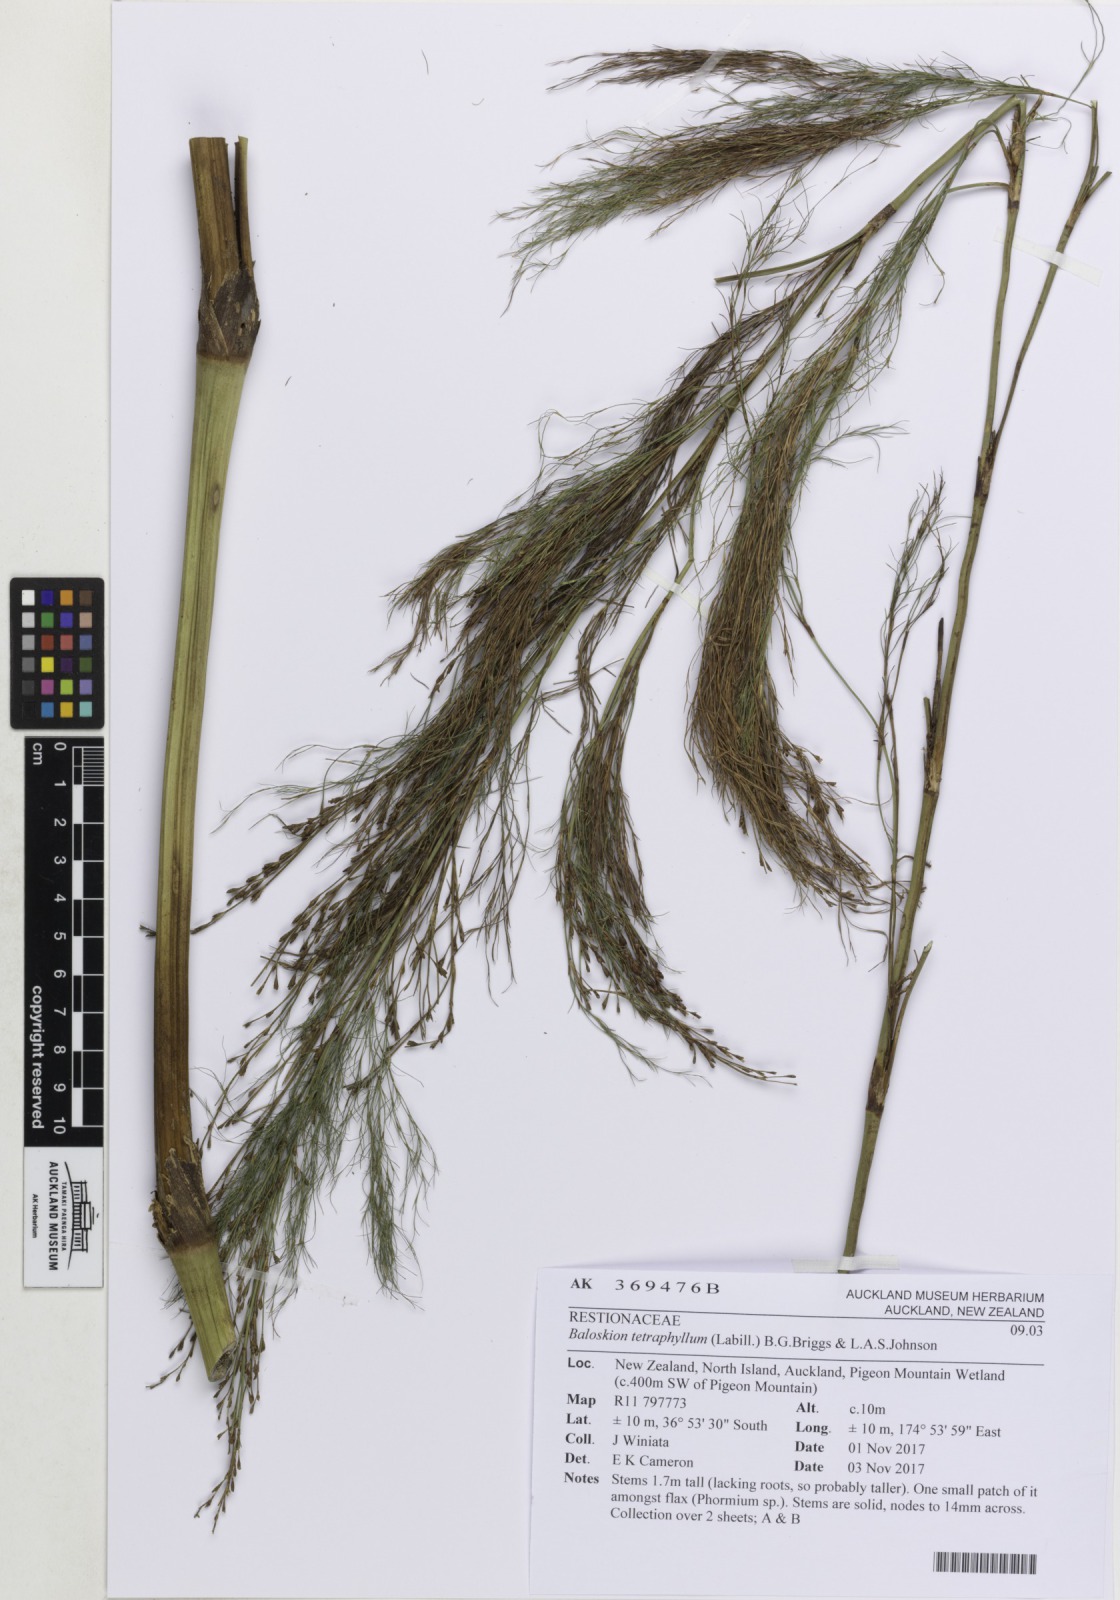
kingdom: Plantae
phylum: Tracheophyta
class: Liliopsida
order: Poales
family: Restionaceae
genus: Baloskion
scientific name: Baloskion tetraphyllum
